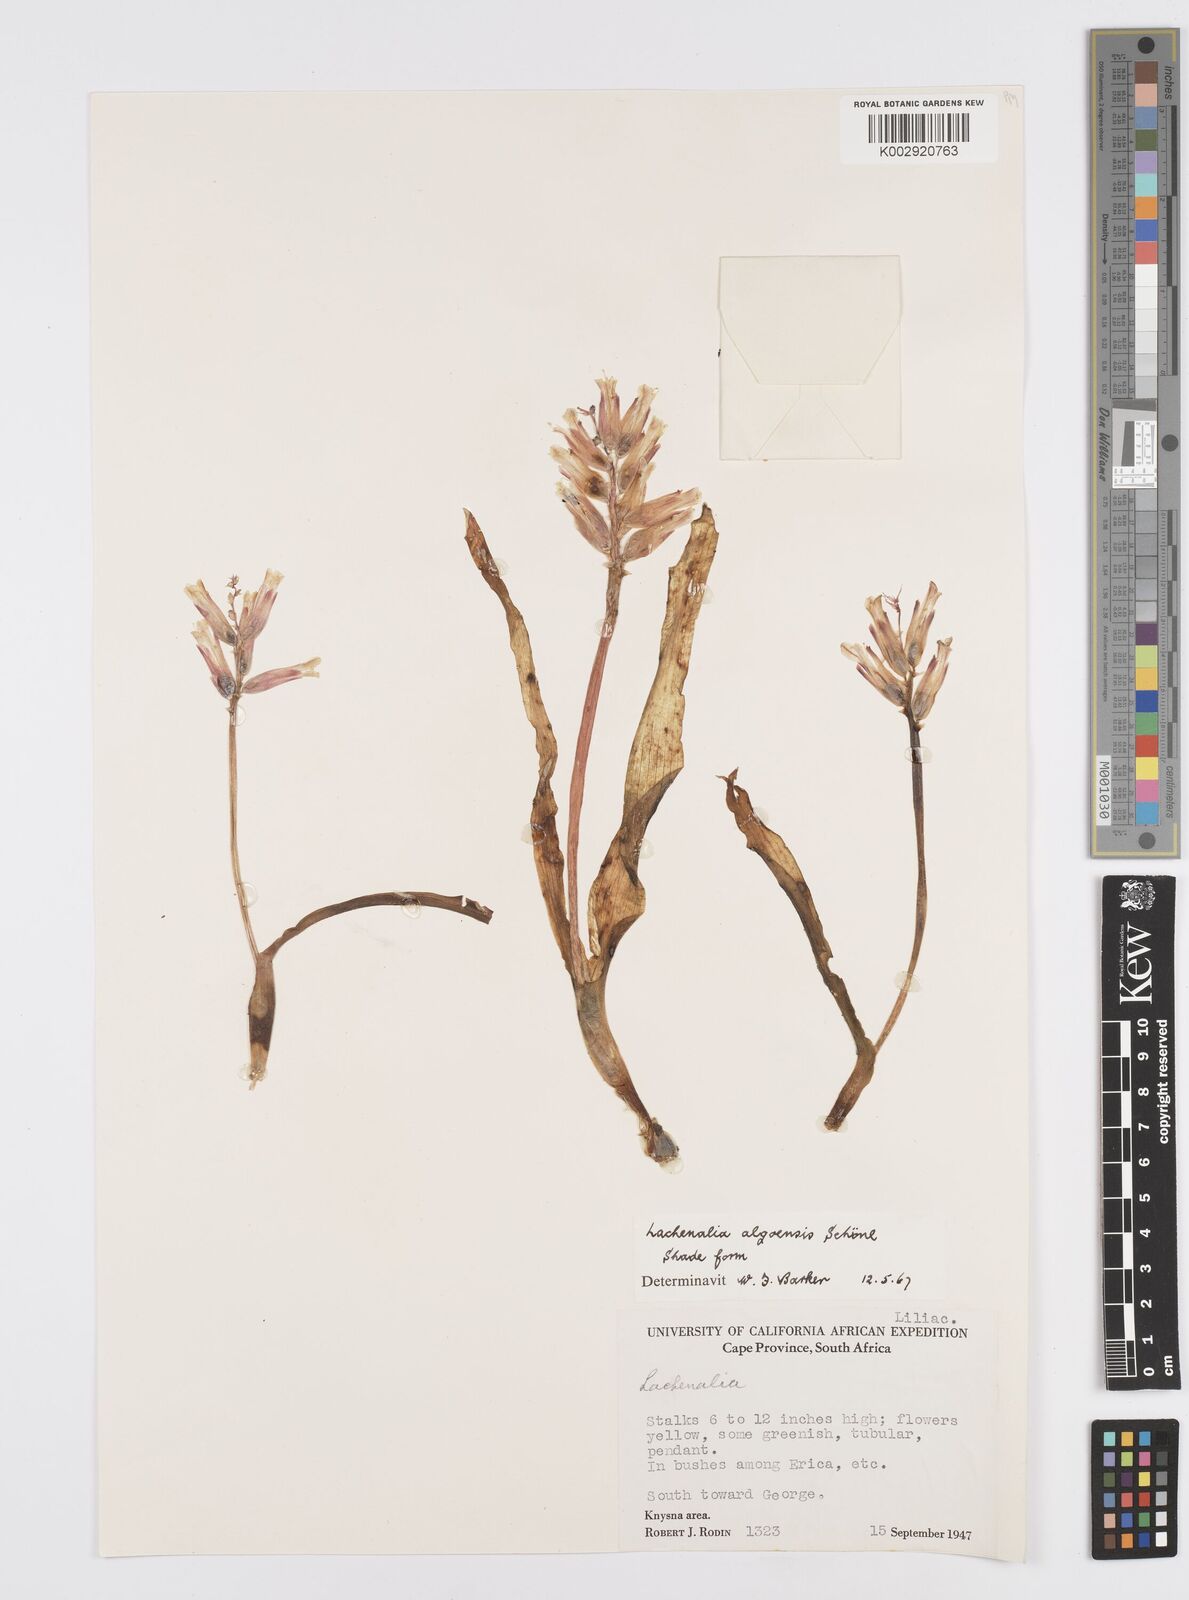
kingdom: Plantae
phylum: Tracheophyta
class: Liliopsida
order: Asparagales
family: Asparagaceae
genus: Lachenalia
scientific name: Lachenalia algoensis
